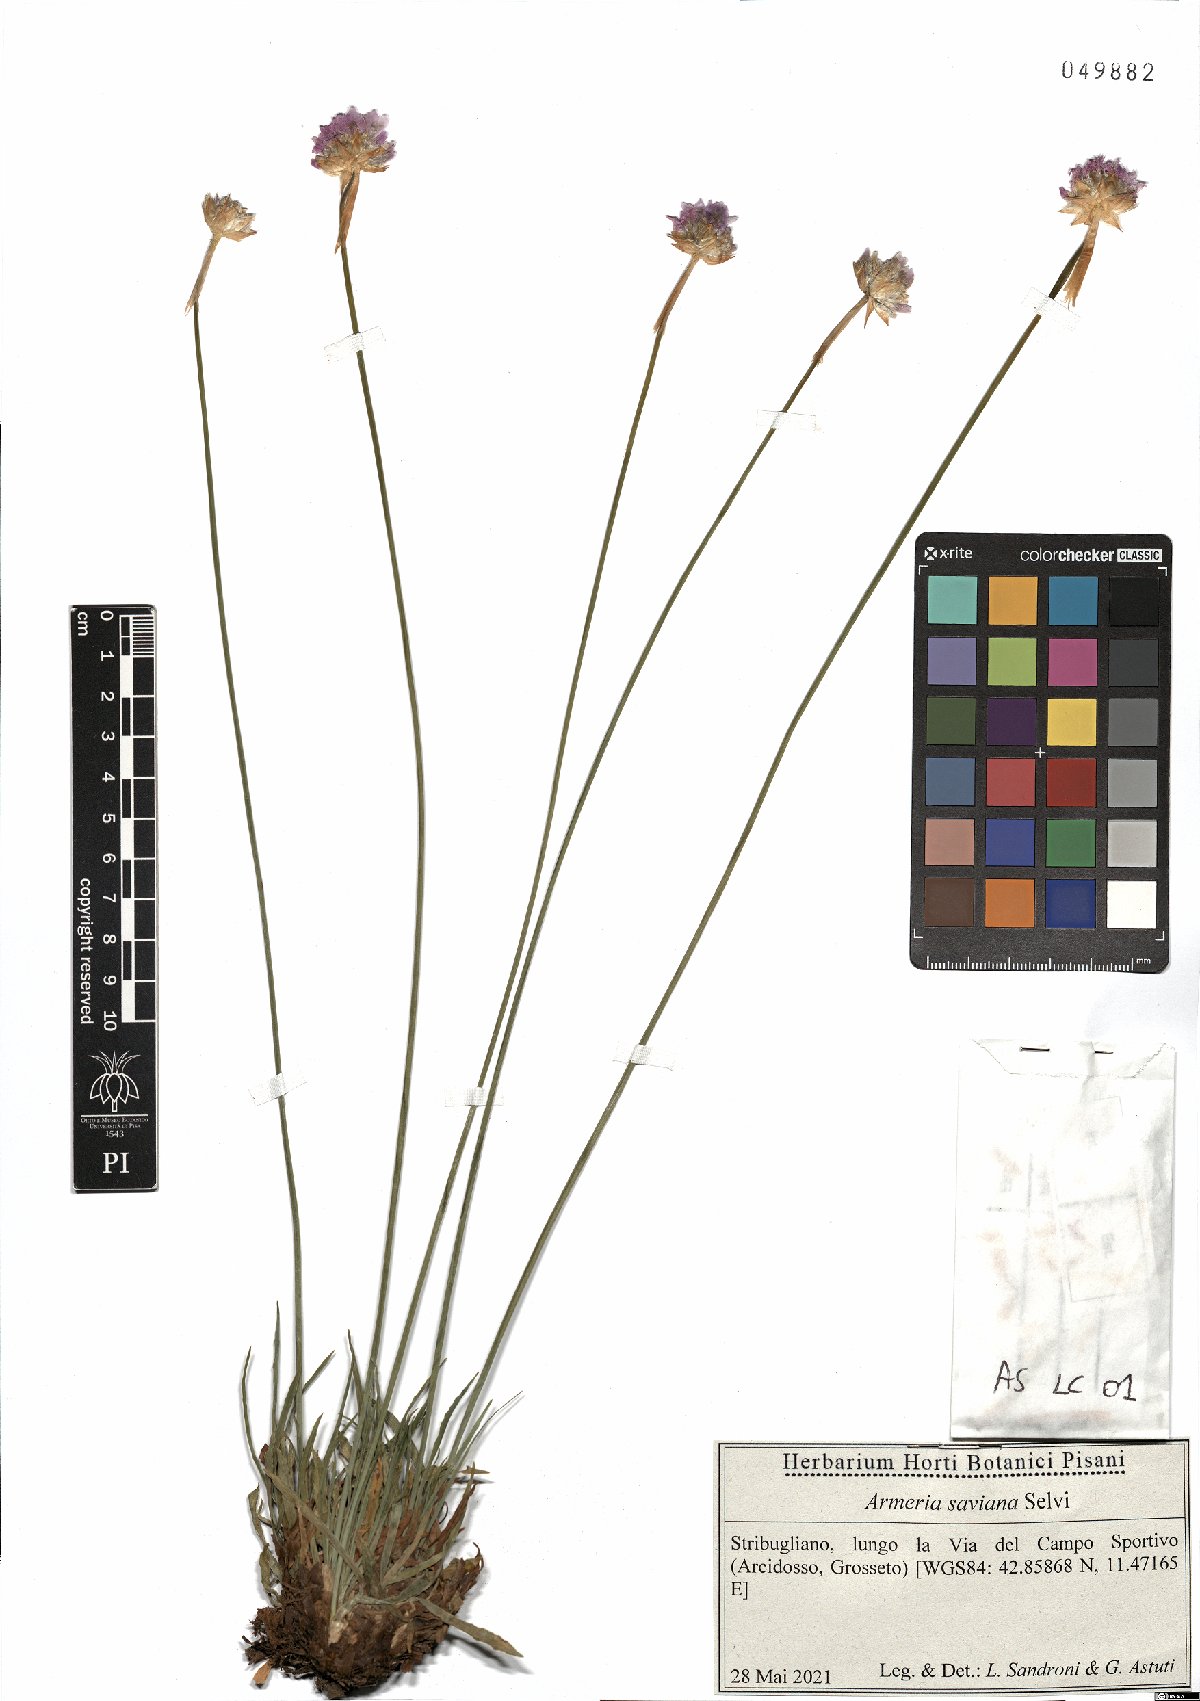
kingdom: Plantae
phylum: Tracheophyta
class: Magnoliopsida
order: Caryophyllales
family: Plumbaginaceae
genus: Armeria
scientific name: Armeria saviana
